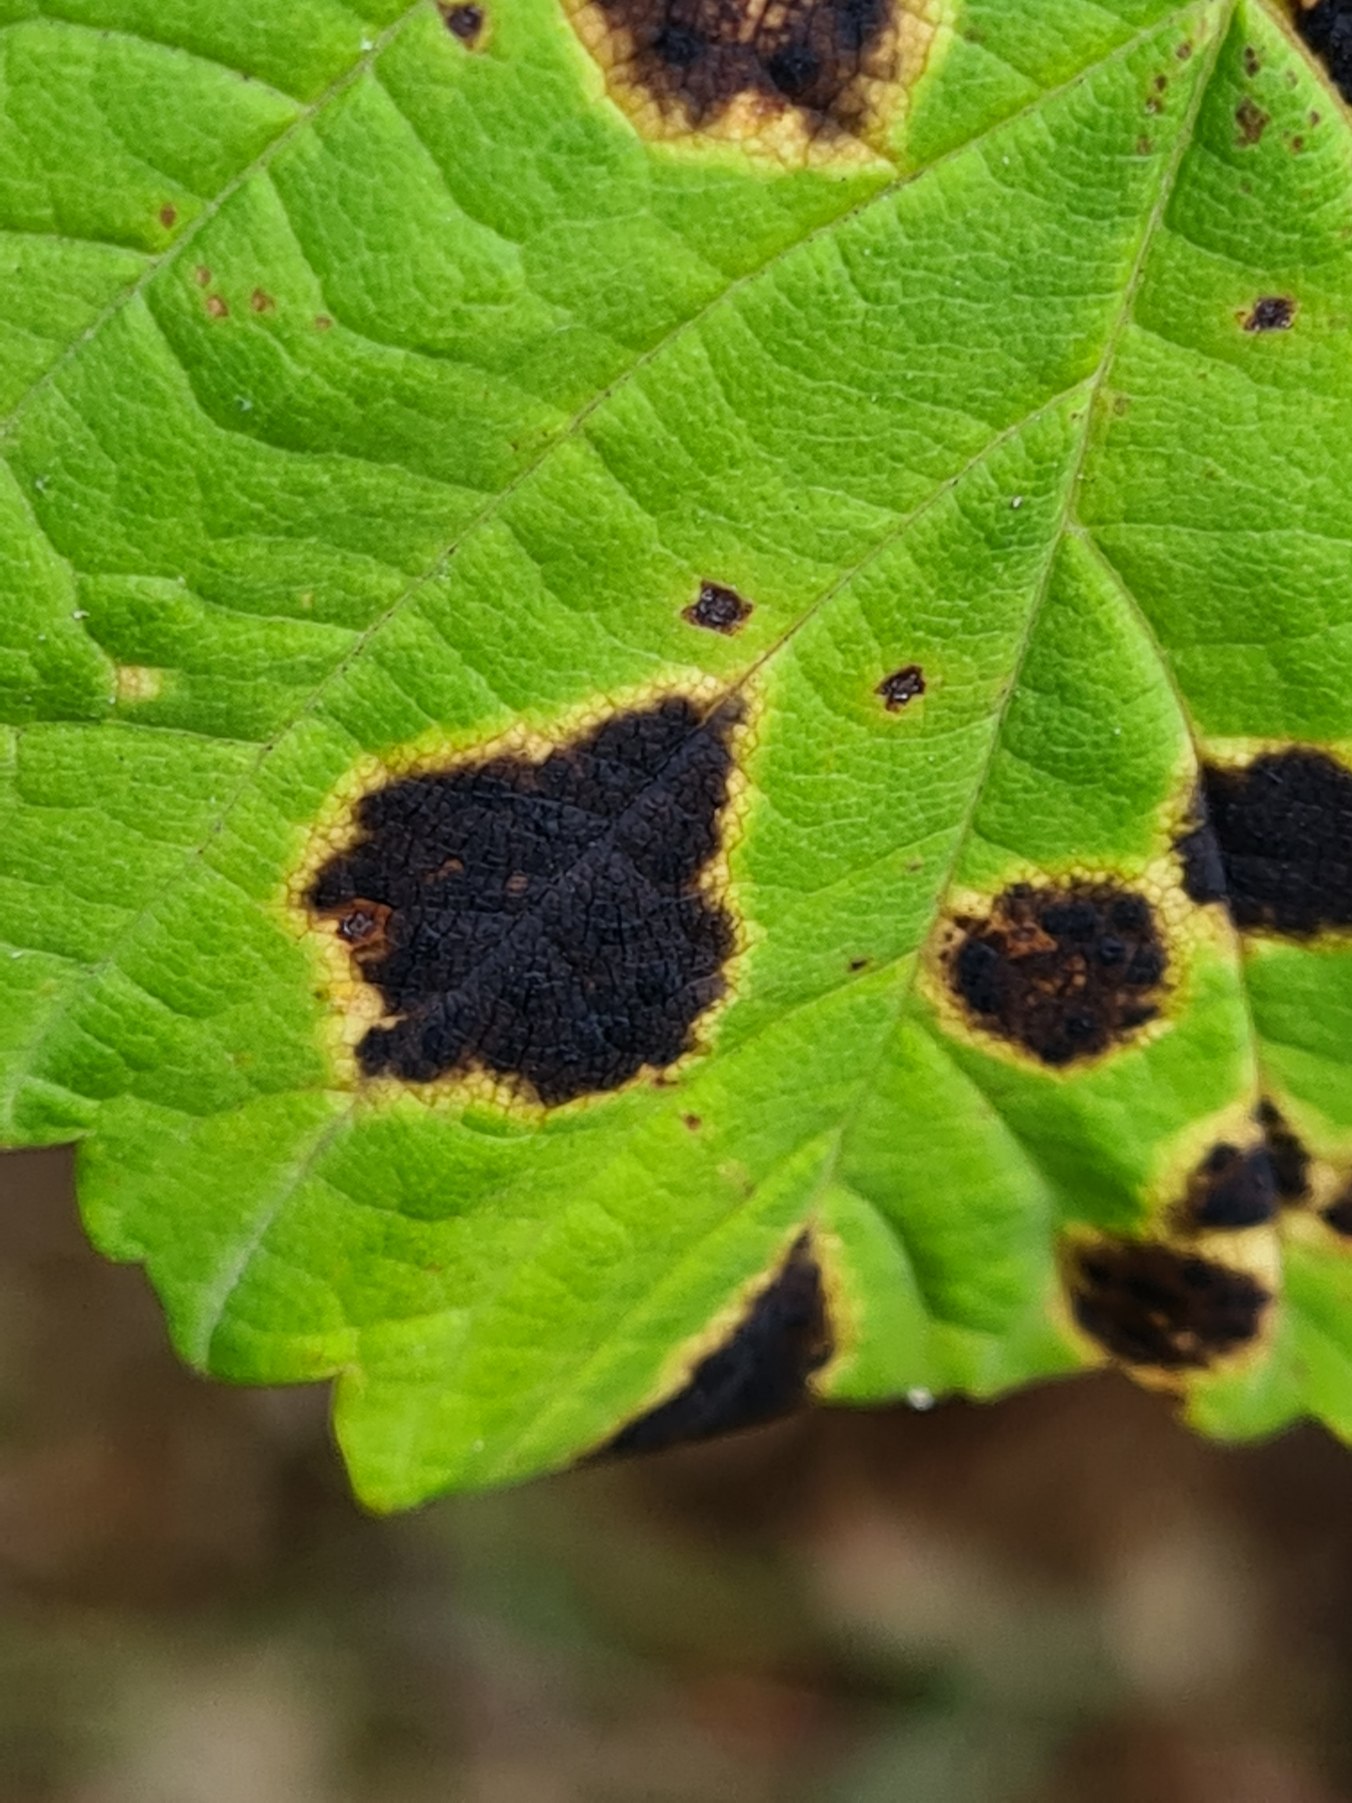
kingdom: Fungi
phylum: Ascomycota
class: Leotiomycetes
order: Rhytismatales
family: Rhytismataceae
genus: Rhytisma
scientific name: Rhytisma acerinum
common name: Ahorn-rynkeplet
